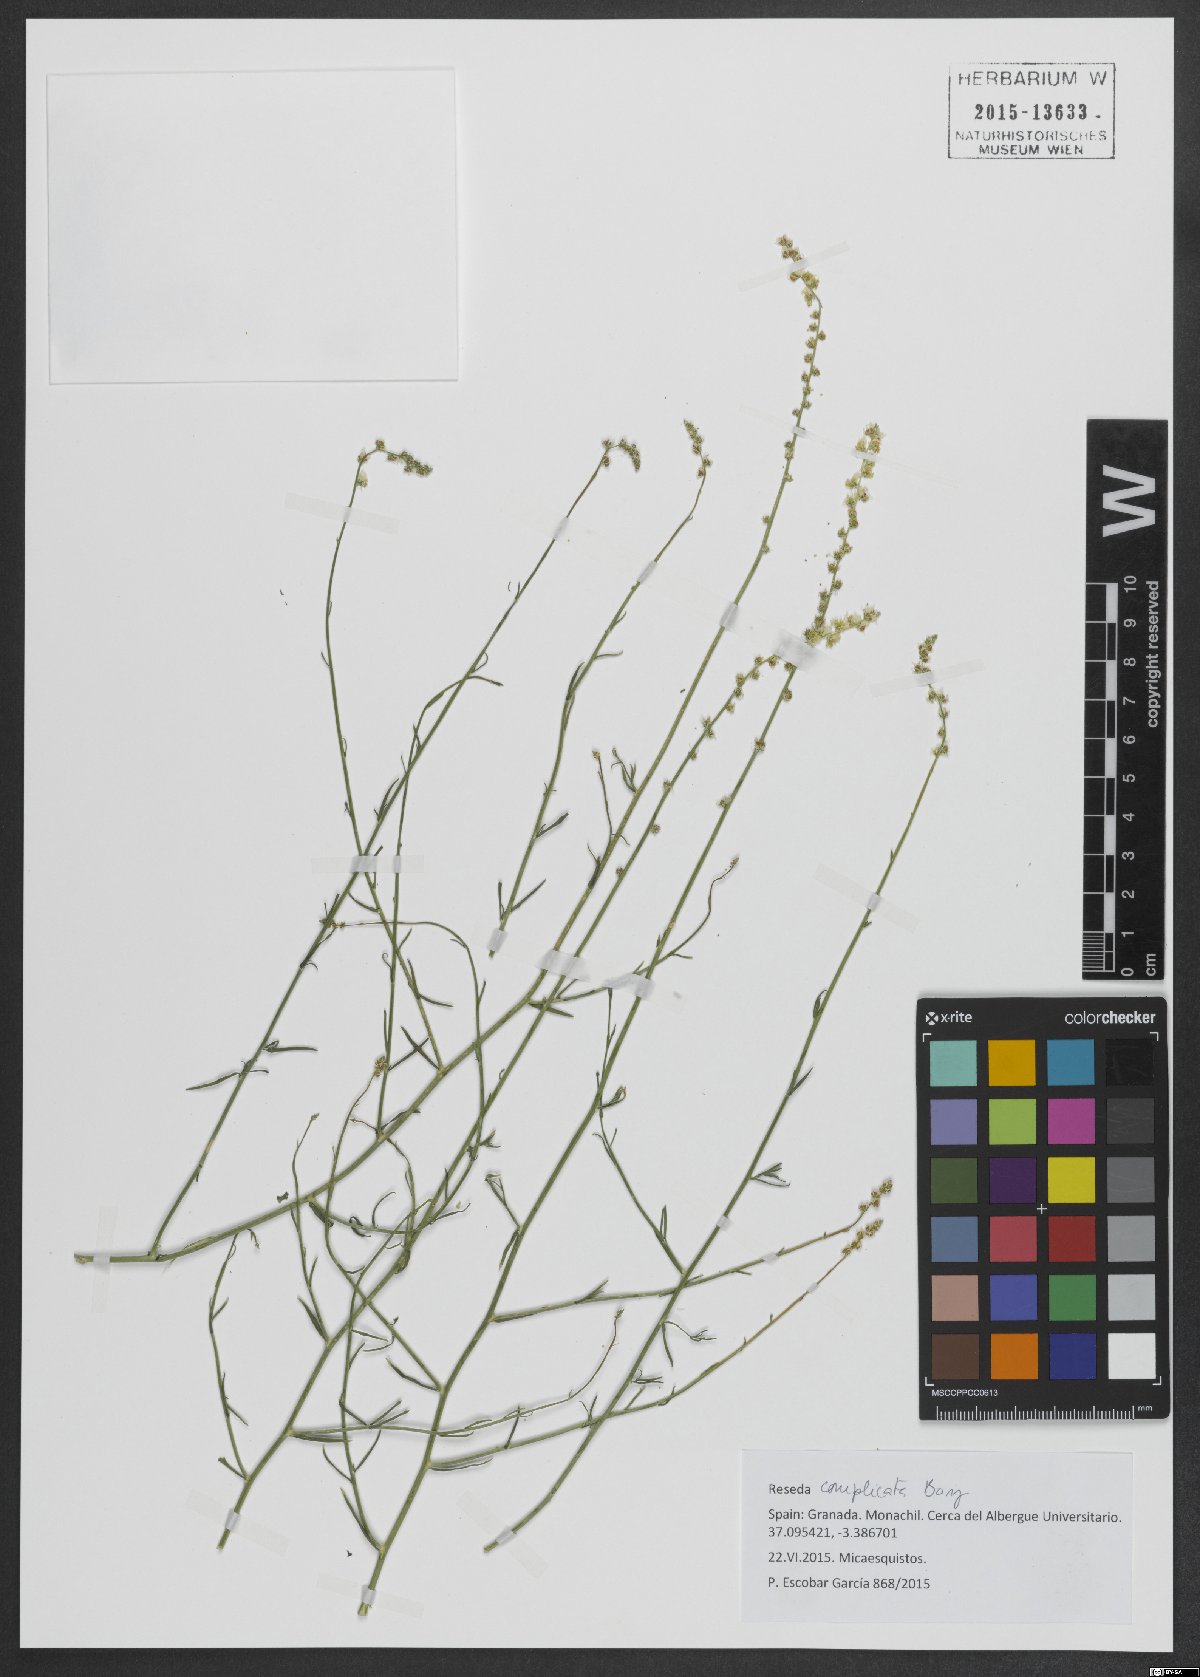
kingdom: Plantae
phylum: Tracheophyta
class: Magnoliopsida
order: Brassicales
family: Resedaceae
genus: Reseda
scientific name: Reseda complicata
